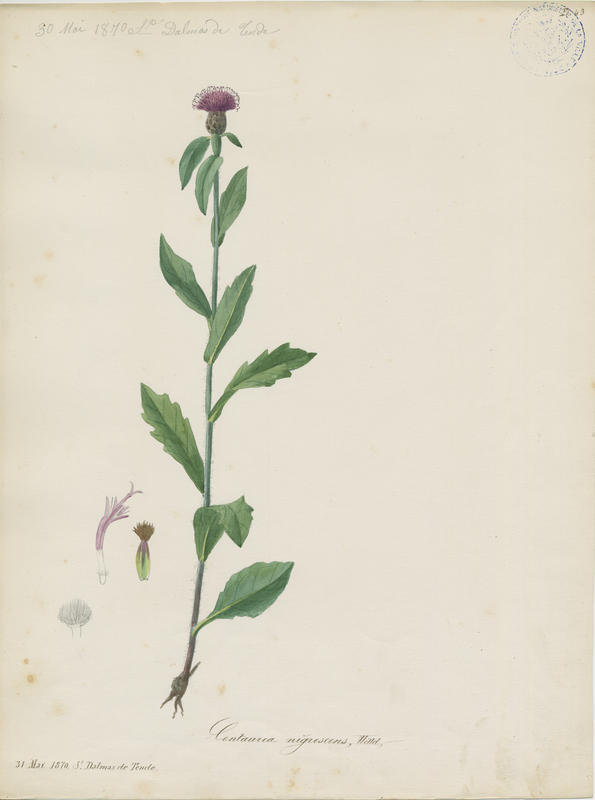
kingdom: Plantae
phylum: Tracheophyta
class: Magnoliopsida
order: Asterales
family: Asteraceae
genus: Centaurea
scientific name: Centaurea nigrescens
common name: Tyrol knapweed
